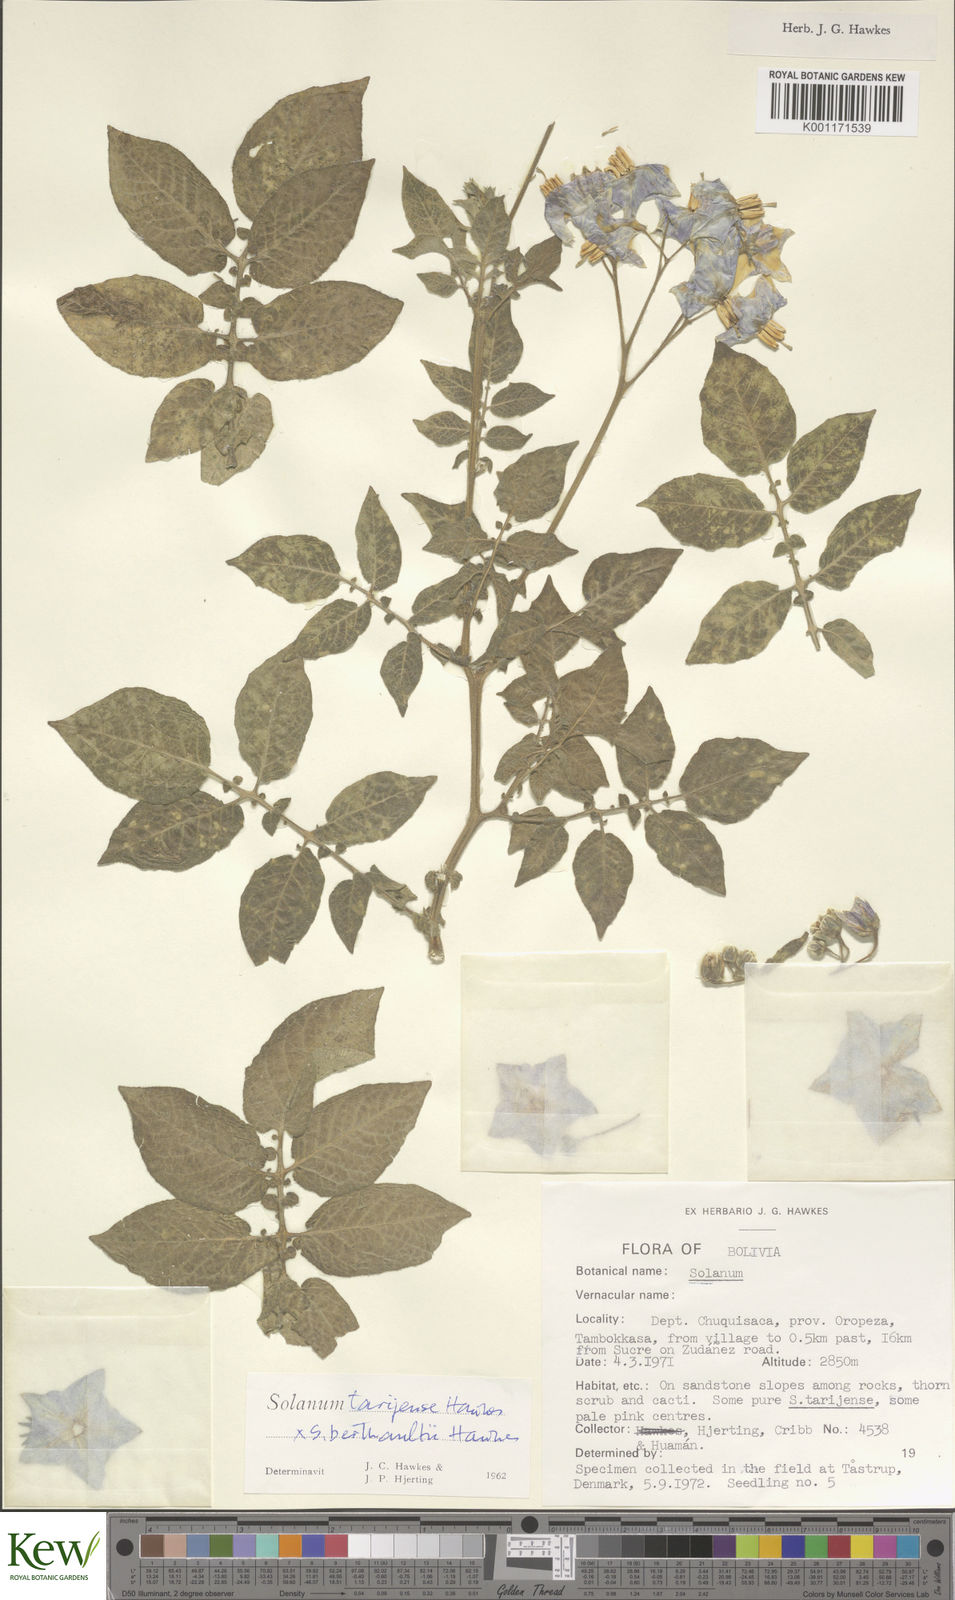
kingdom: Plantae
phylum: Tracheophyta
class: Magnoliopsida
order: Solanales
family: Solanaceae
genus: Solanum
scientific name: Solanum tarijense
